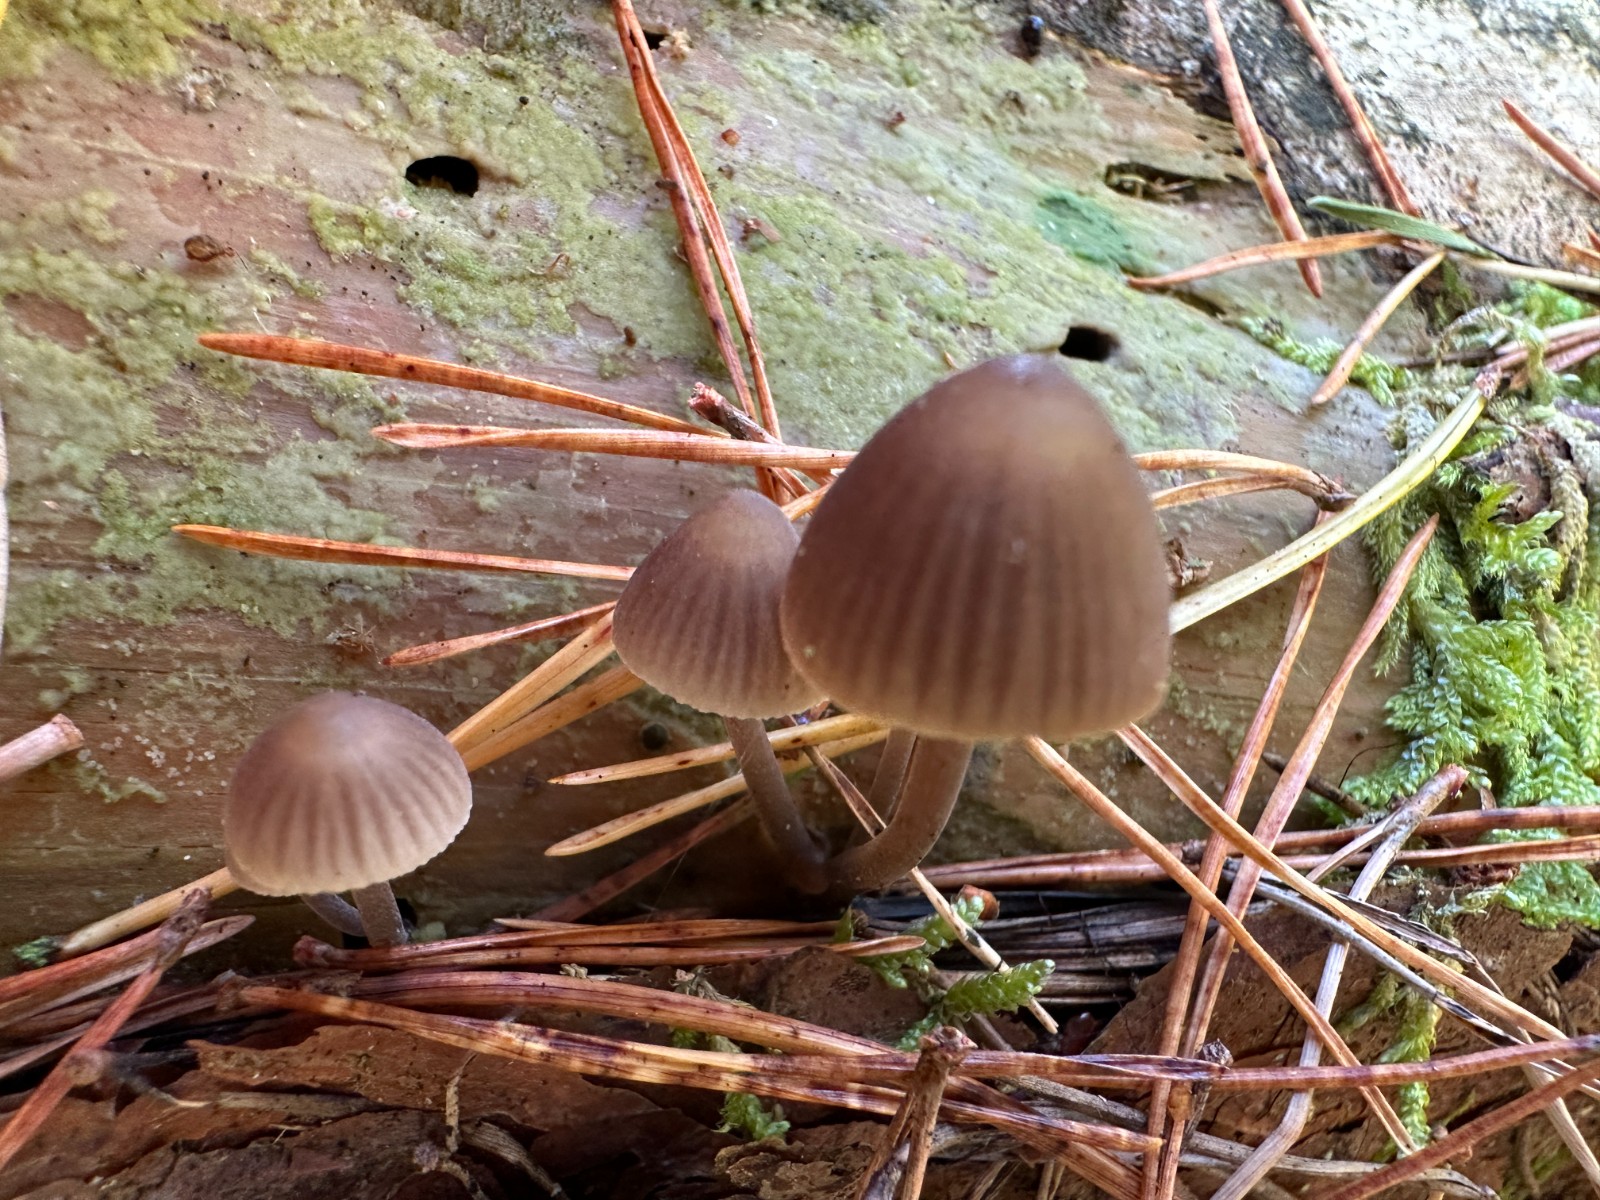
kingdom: Fungi
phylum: Basidiomycota
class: Agaricomycetes
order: Agaricales
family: Mycenaceae
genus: Mycena
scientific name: Mycena stipata
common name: stinkende huesvamp
